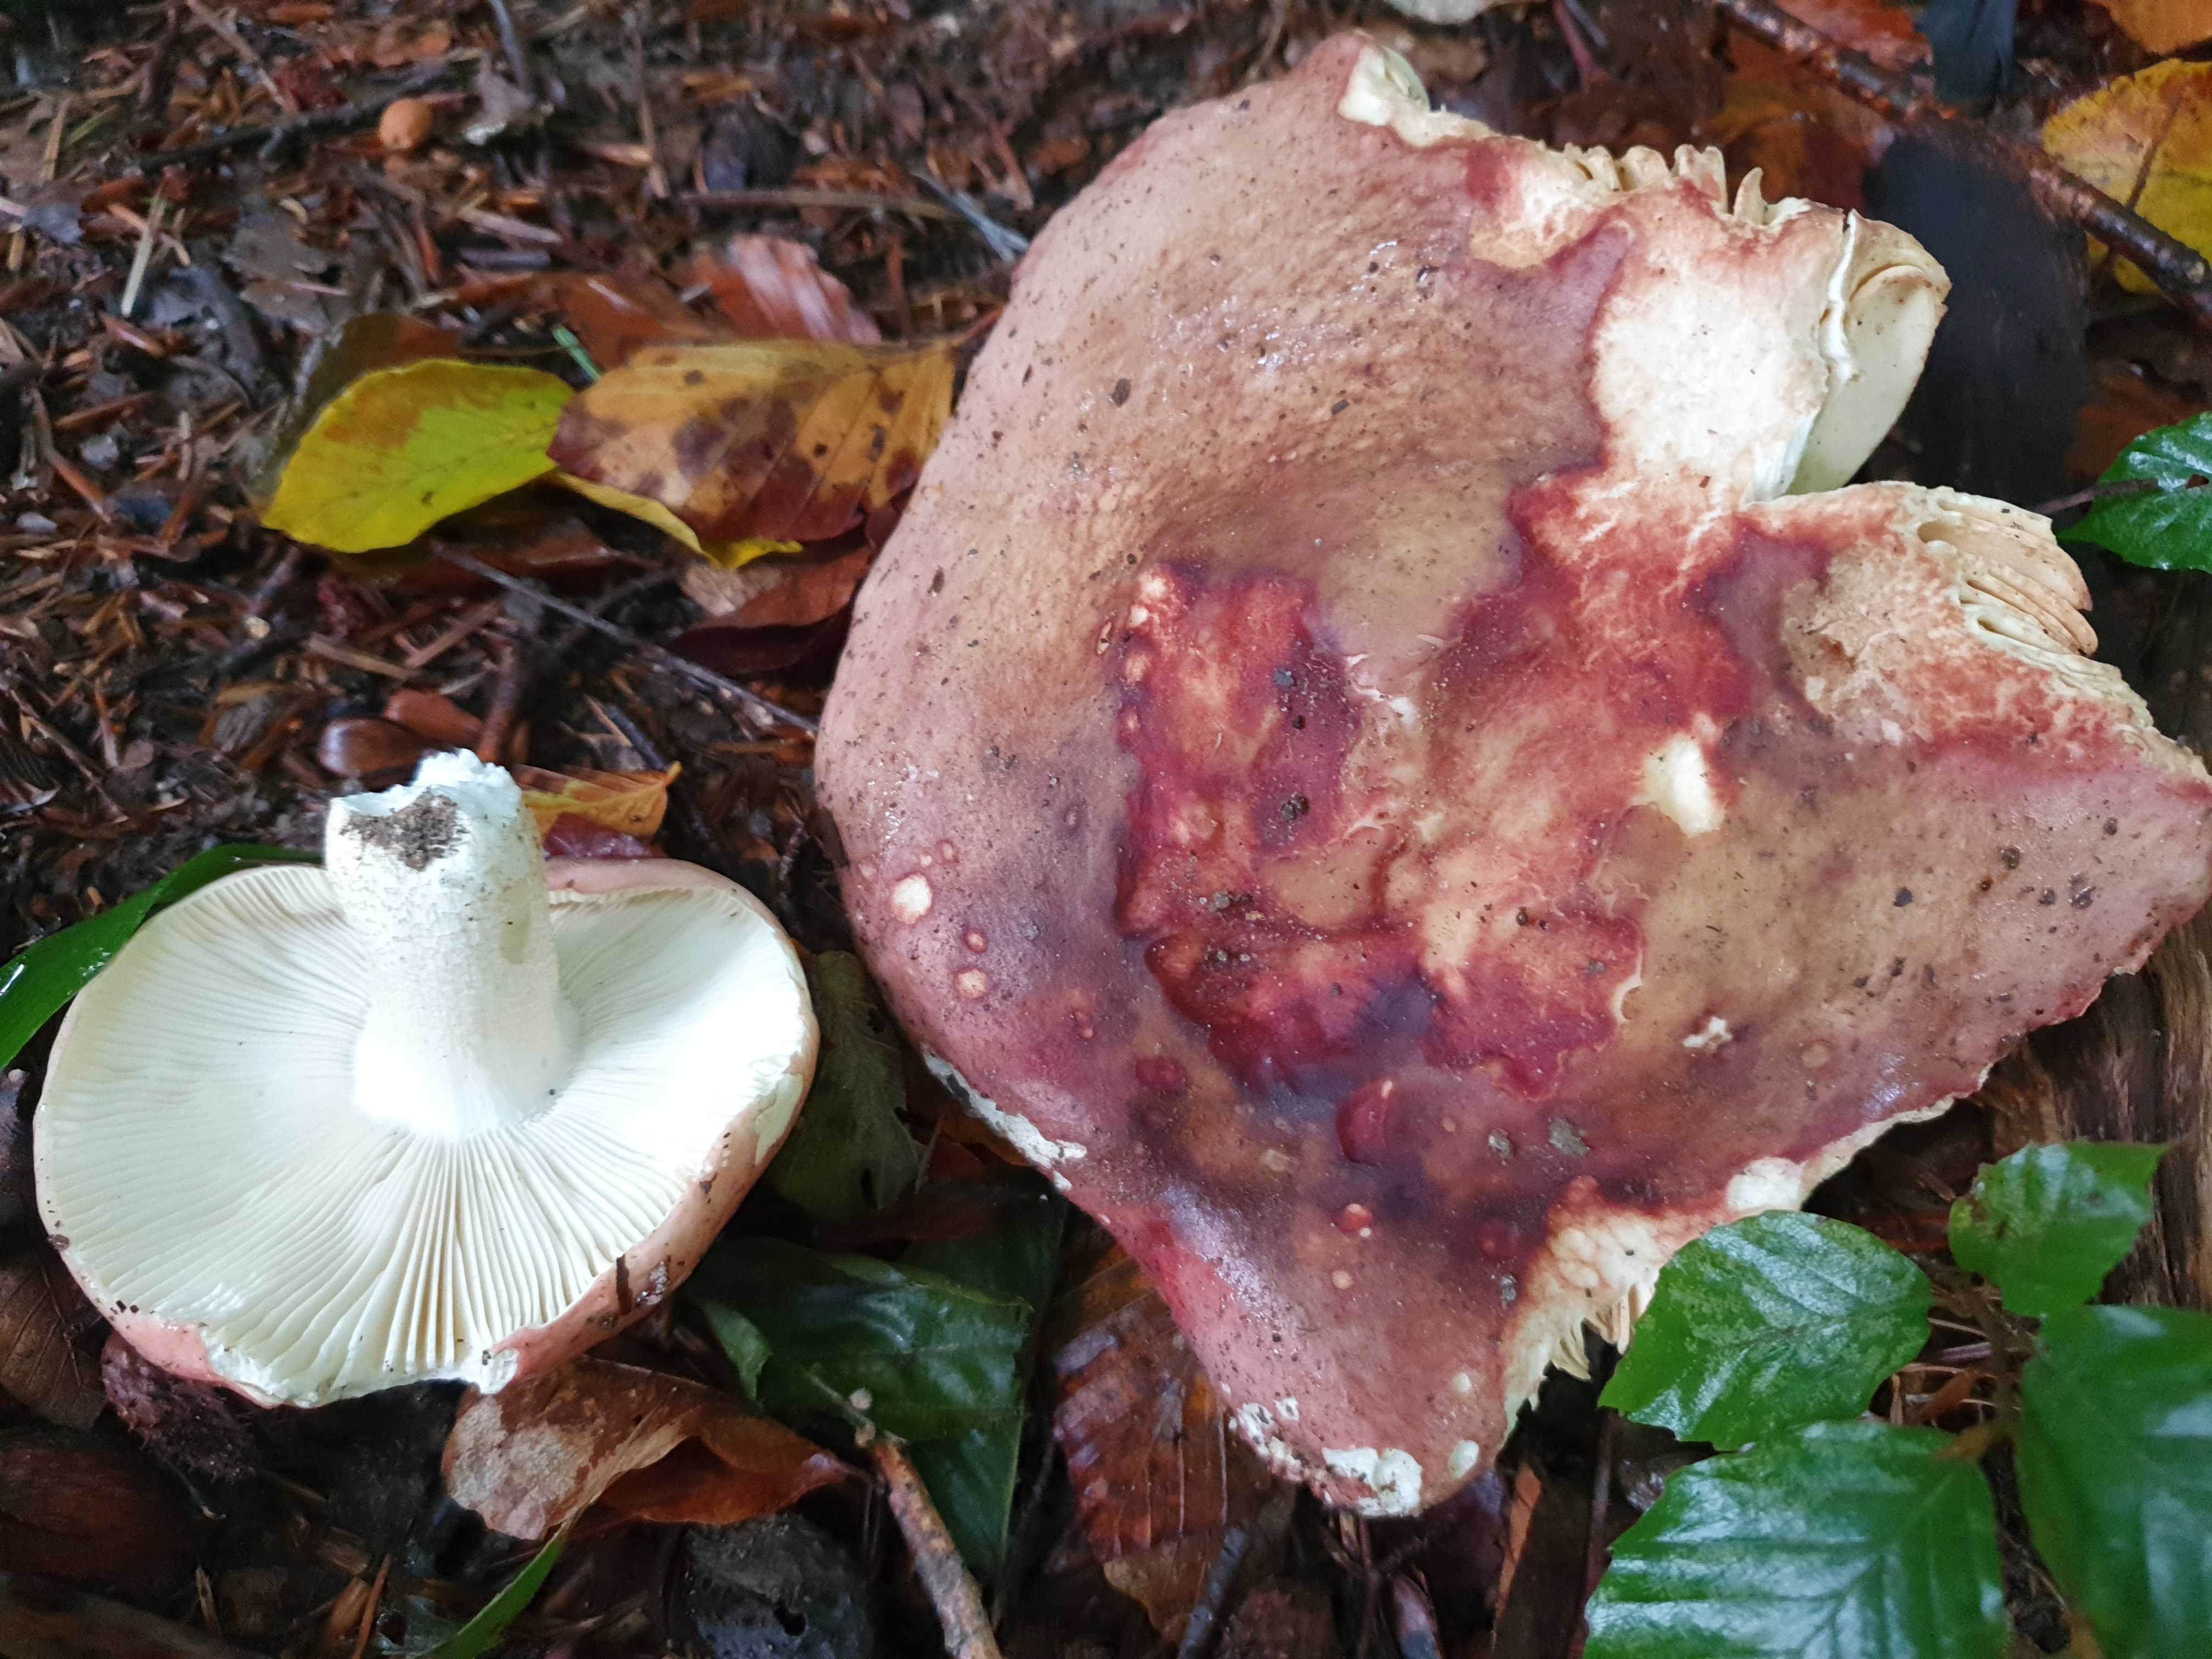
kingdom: Fungi
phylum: Basidiomycota
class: Agaricomycetes
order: Russulales
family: Russulaceae
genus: Russula
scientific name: Russula faginea
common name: bøge-skørhat
